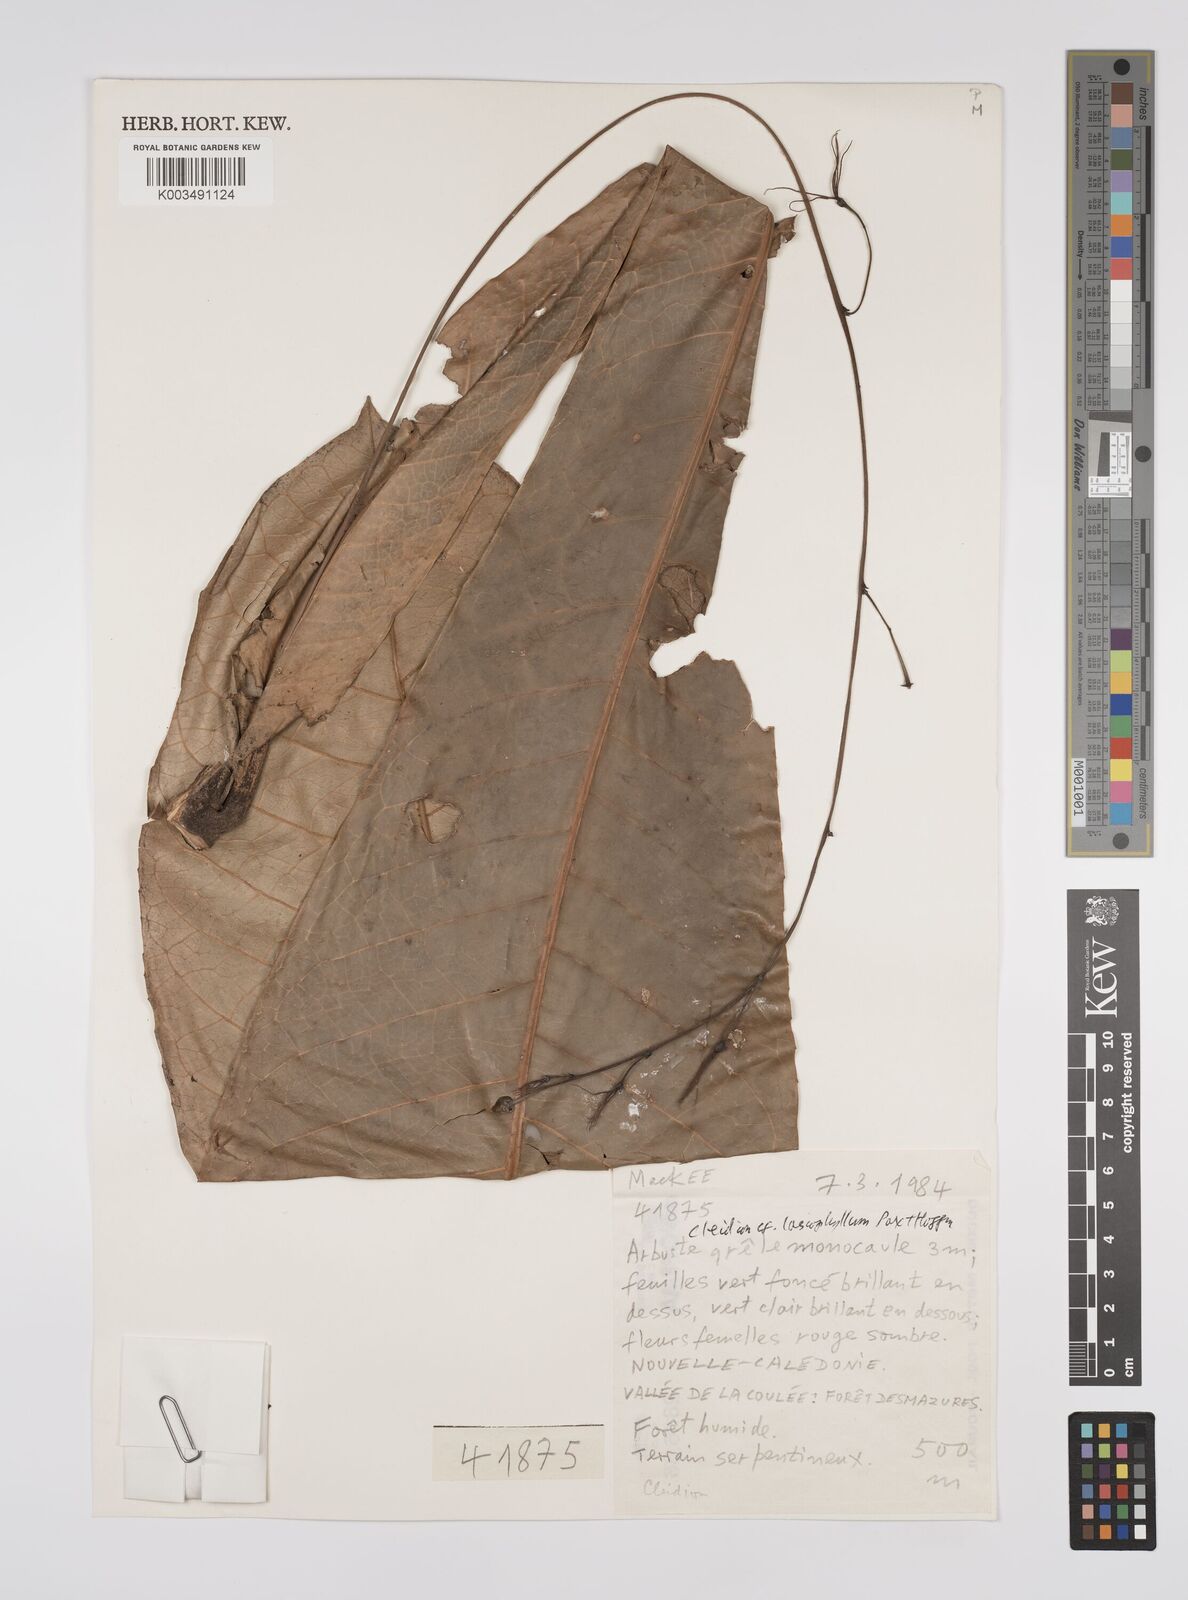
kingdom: Plantae
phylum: Tracheophyta
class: Magnoliopsida
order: Malpighiales
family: Euphorbiaceae
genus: Cleidion
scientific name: Cleidion lasiophyllum
